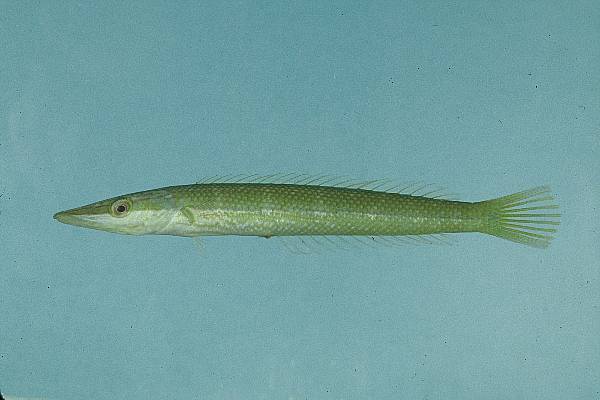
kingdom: Animalia
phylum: Chordata
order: Perciformes
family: Labridae
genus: Cheilio
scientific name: Cheilio inermis
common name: Cigar wrasse
